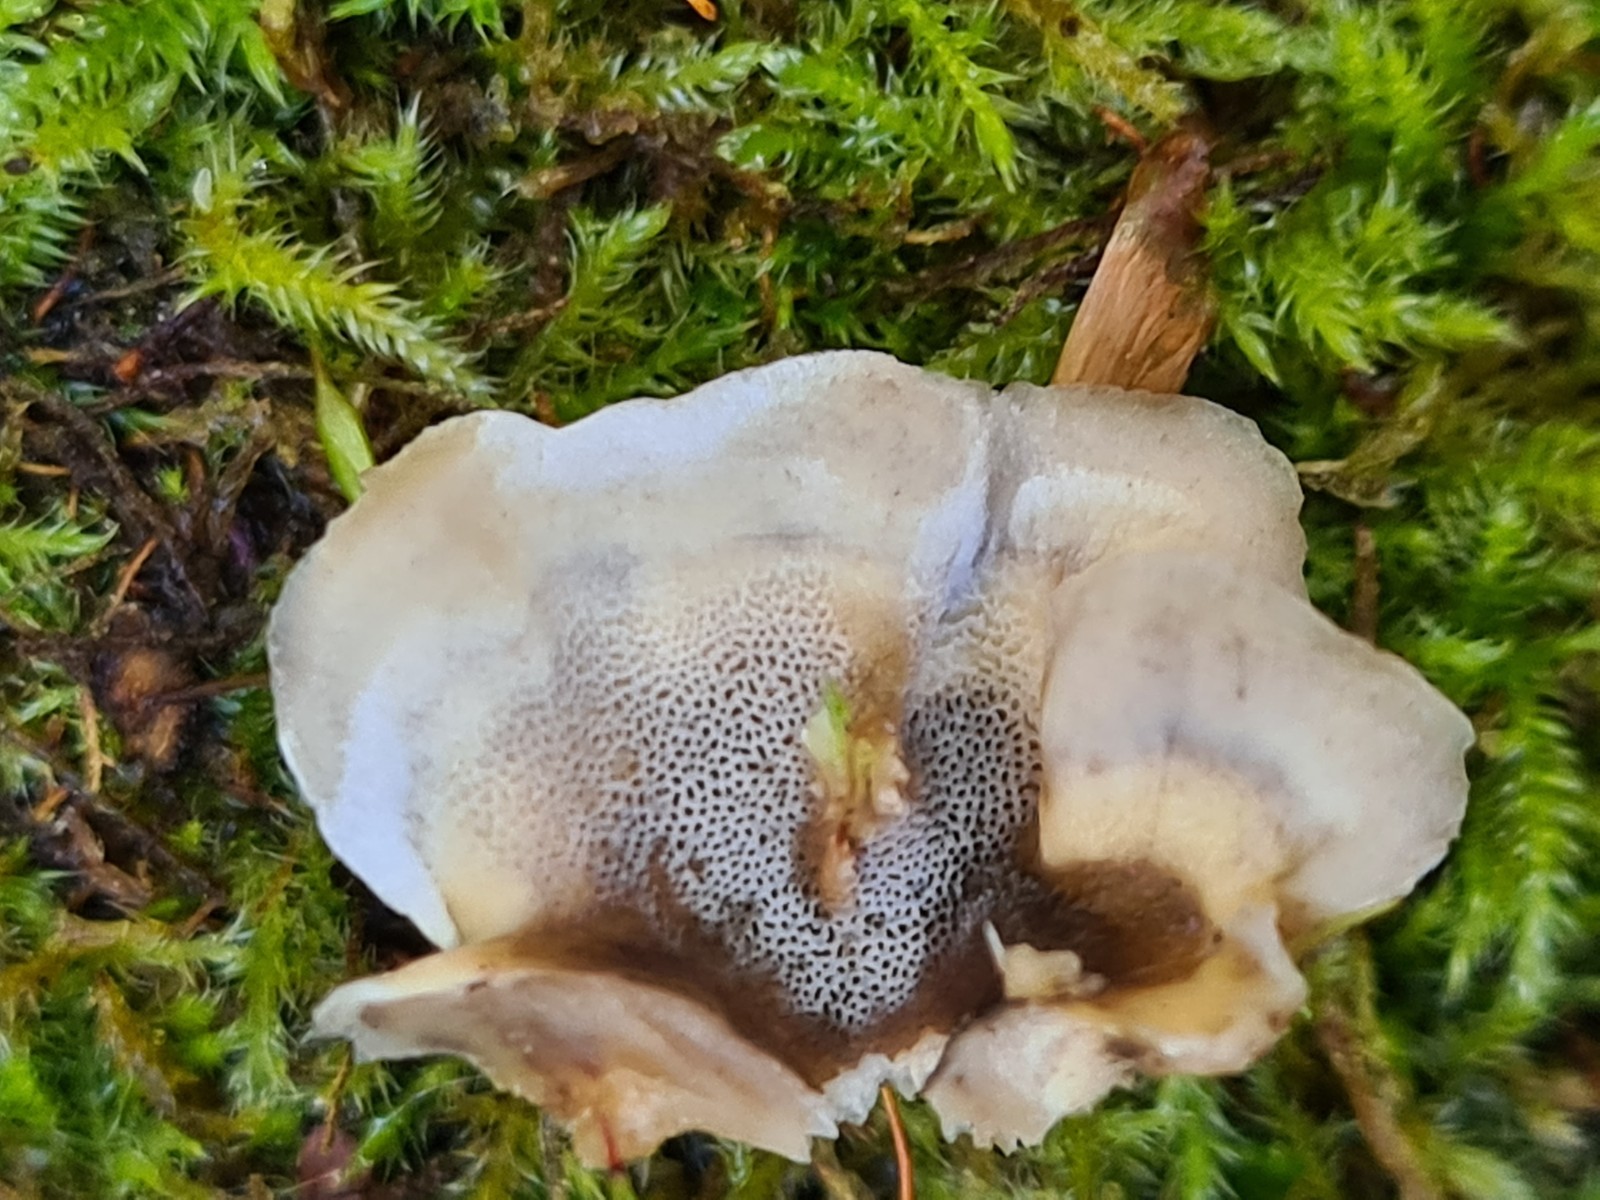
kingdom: Fungi
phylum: Basidiomycota
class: Agaricomycetes
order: Polyporales
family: Phanerochaetaceae
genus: Bjerkandera
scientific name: Bjerkandera adusta
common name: sveden sodporesvamp
